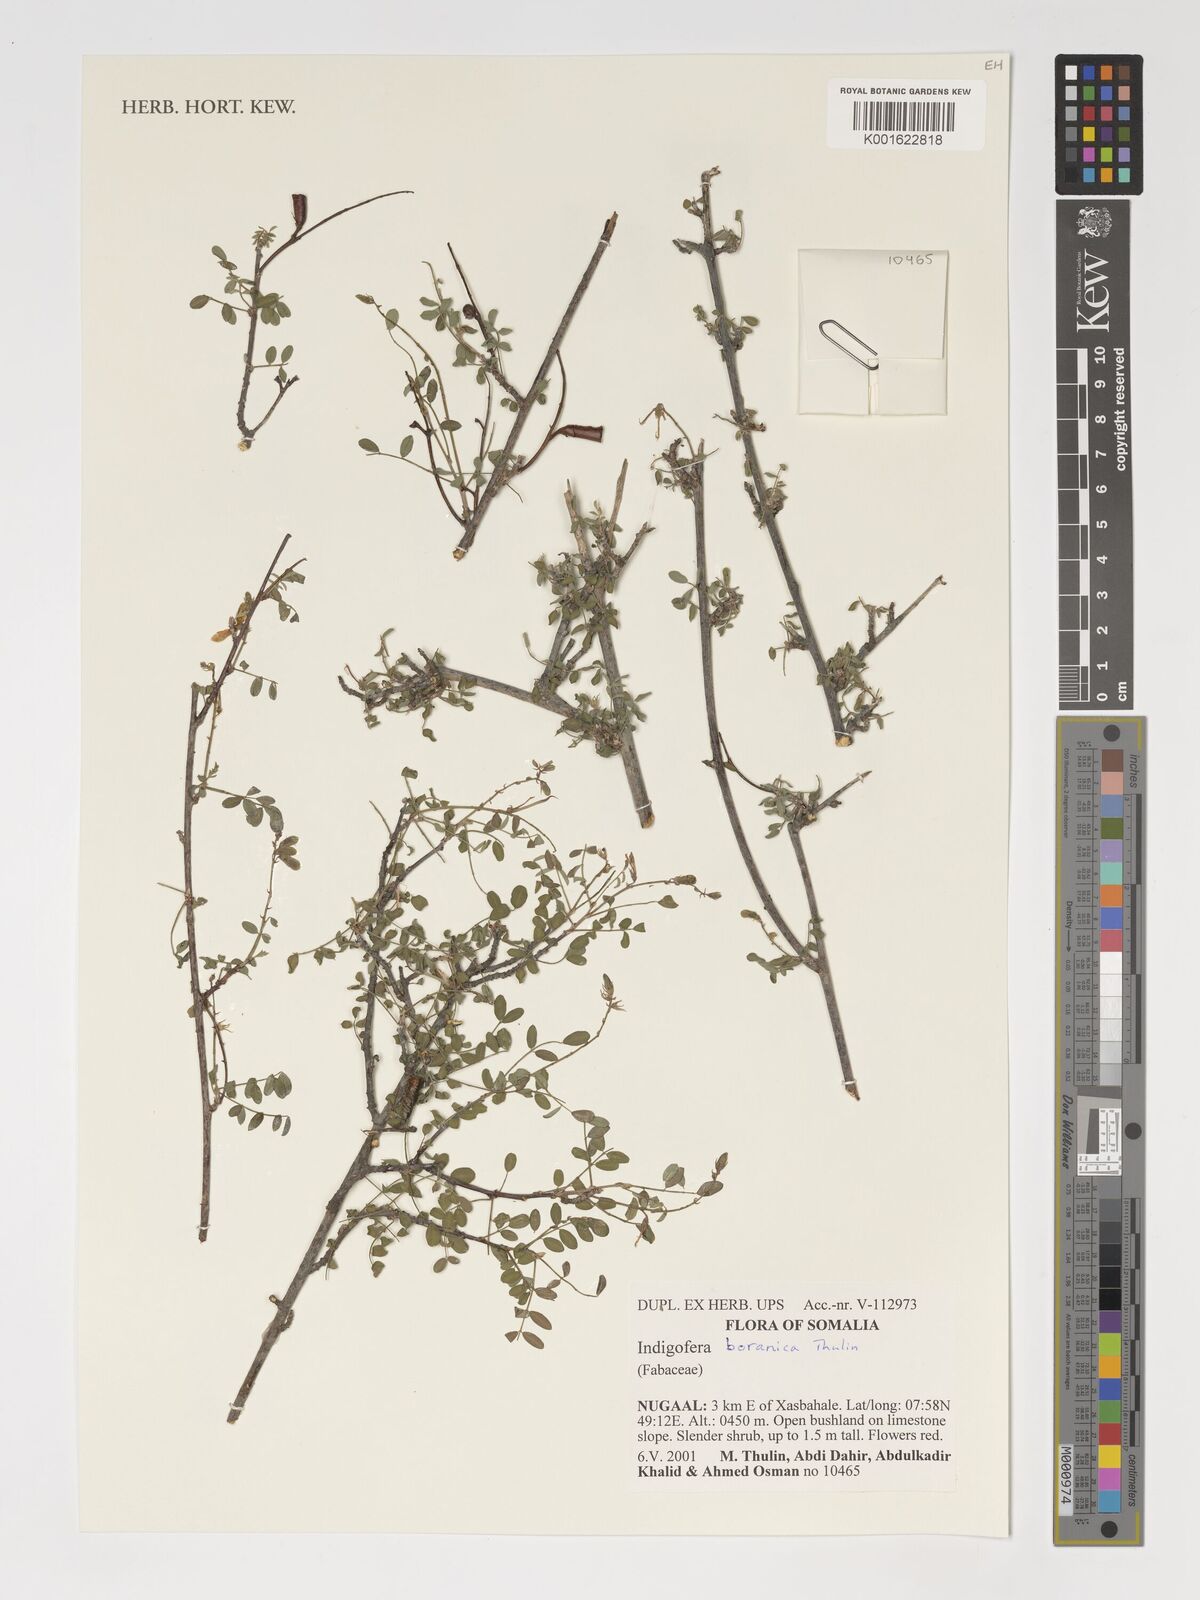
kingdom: Plantae
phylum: Tracheophyta
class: Magnoliopsida
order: Fabales
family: Fabaceae
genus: Indigofera
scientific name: Indigofera boranica
